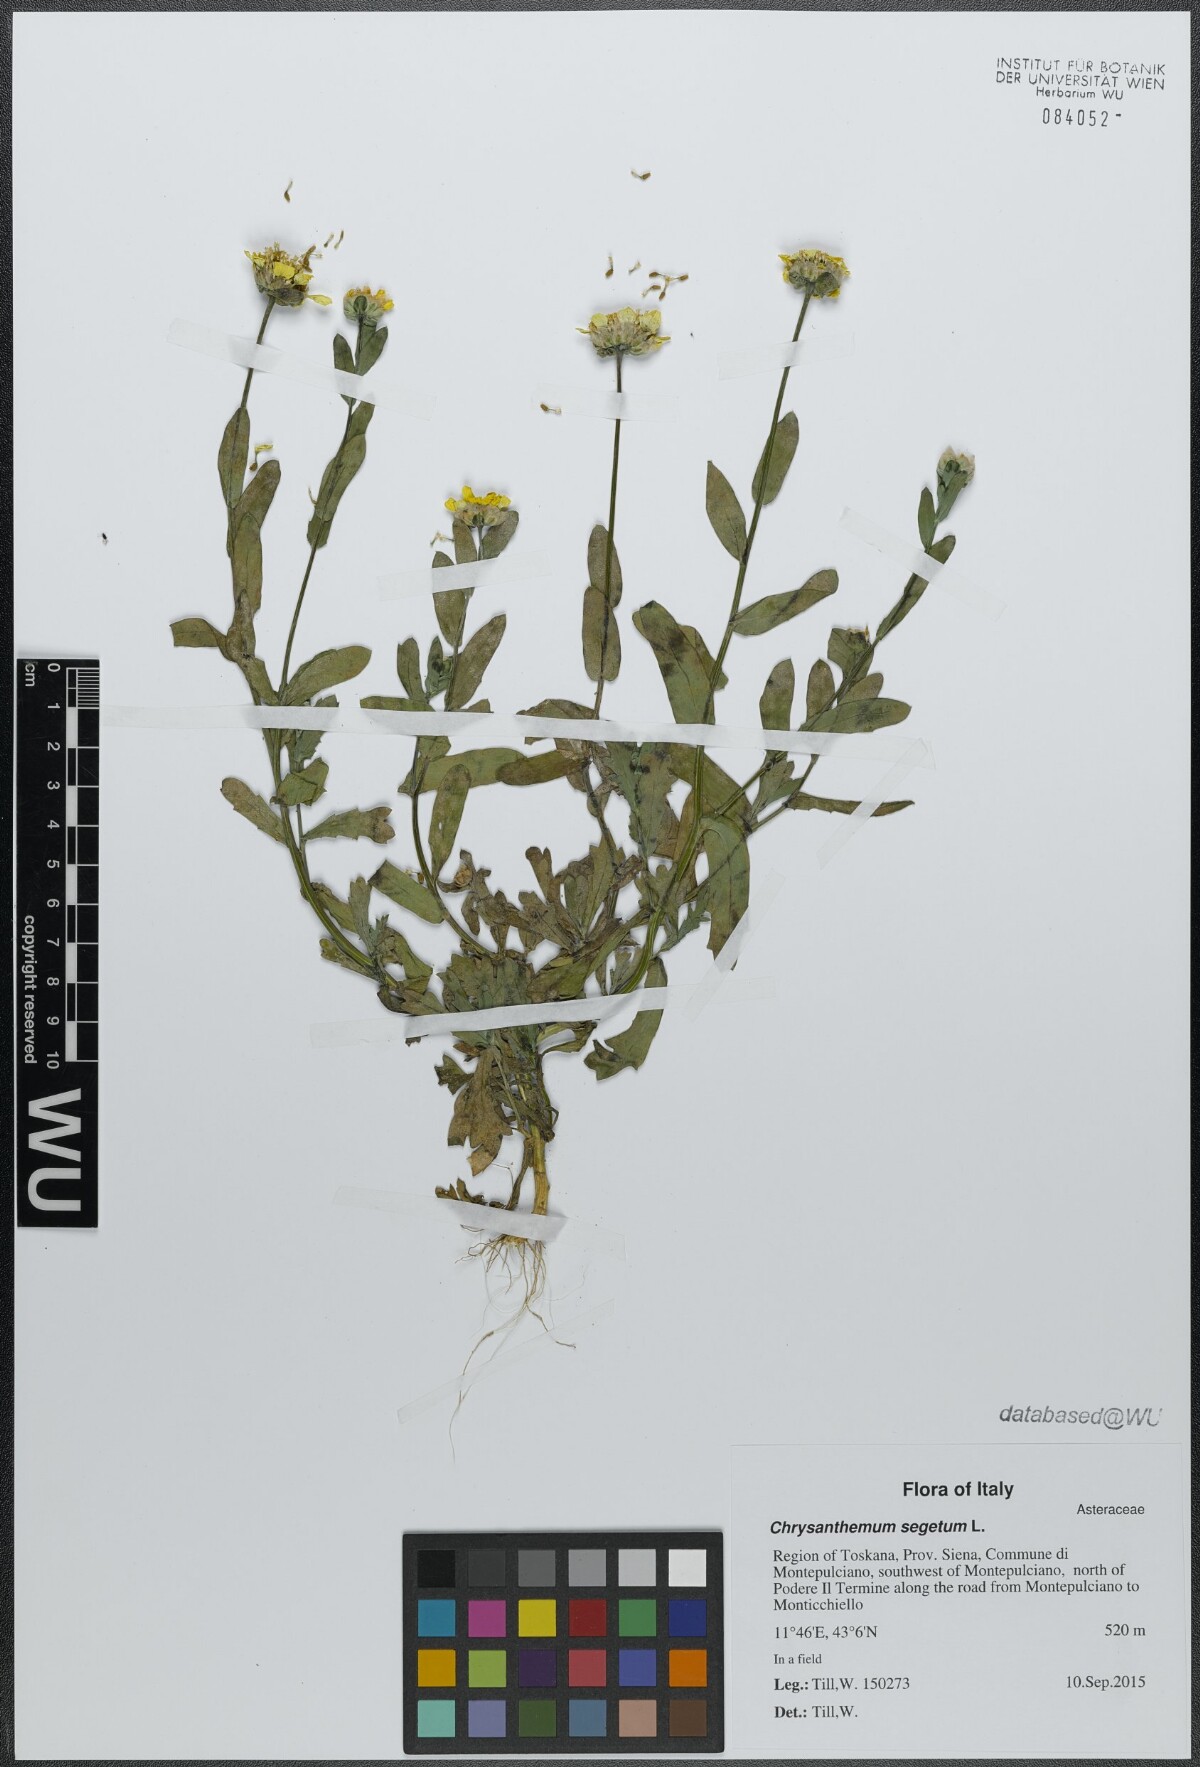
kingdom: Plantae
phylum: Tracheophyta
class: Magnoliopsida
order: Asterales
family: Asteraceae
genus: Glebionis
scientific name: Glebionis segetum
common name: Corndaisy
